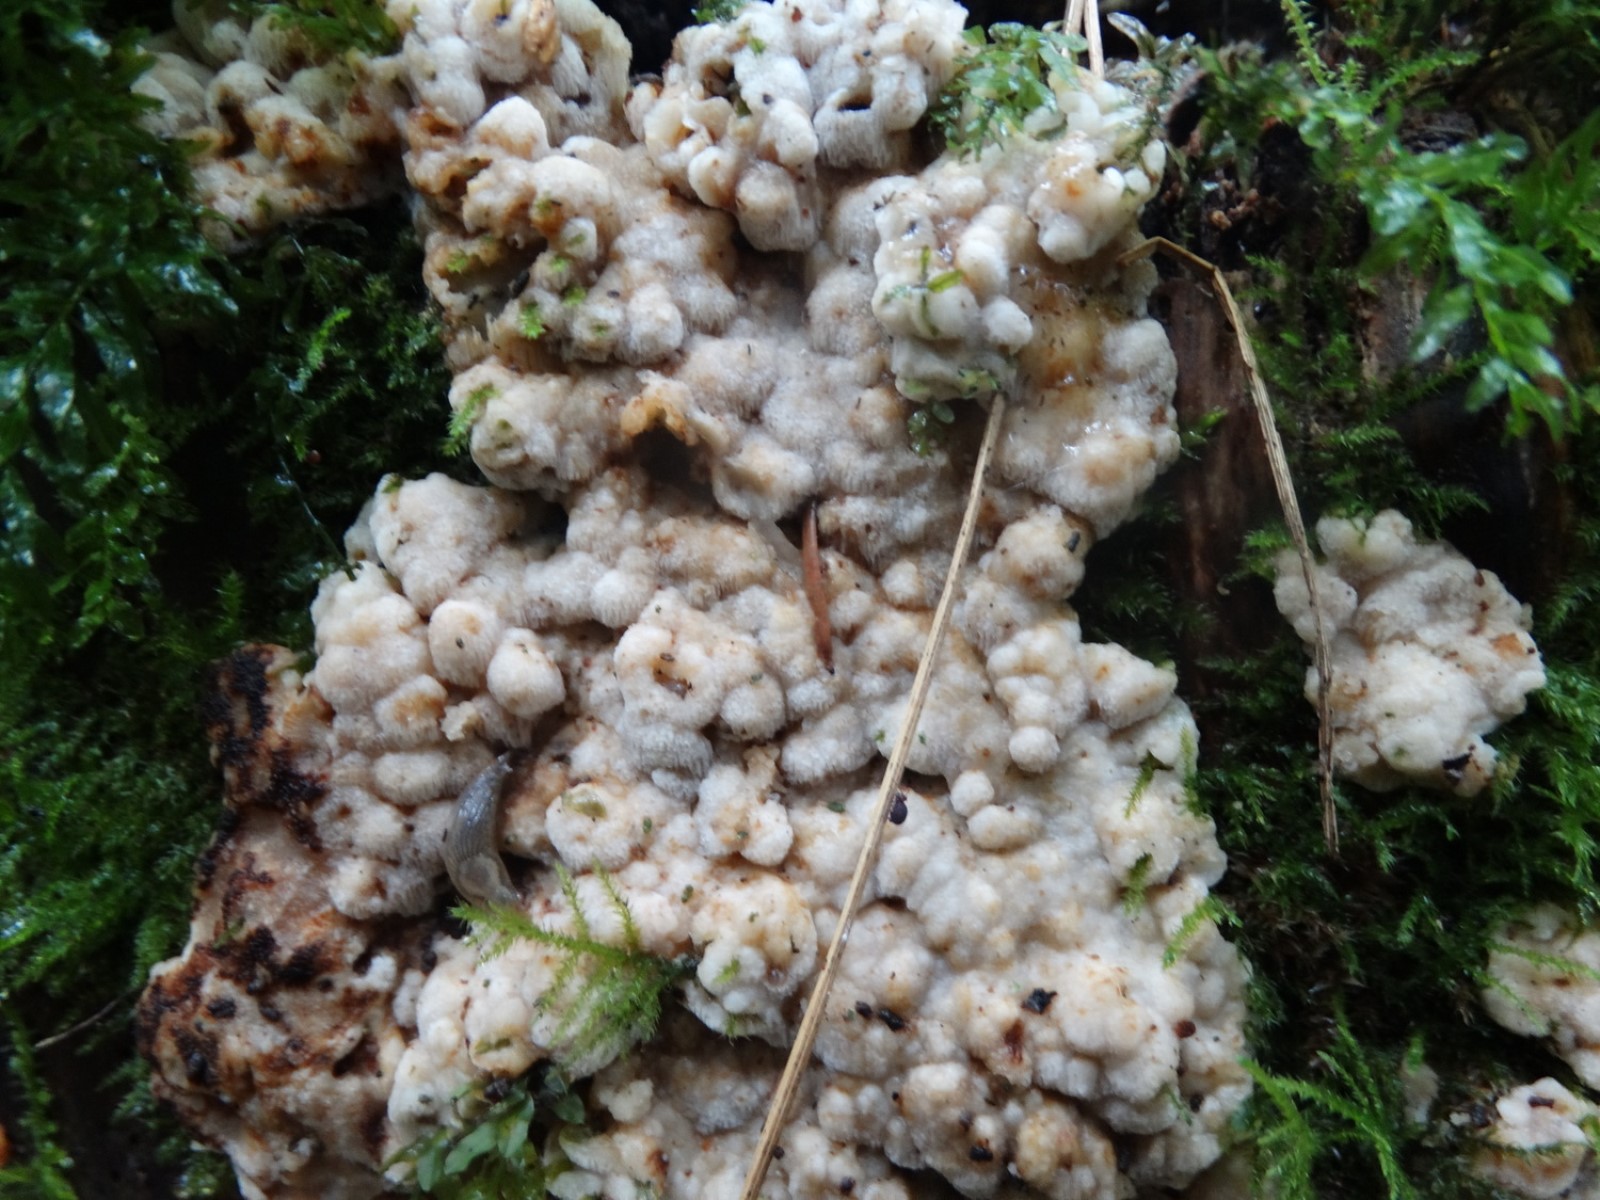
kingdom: Fungi
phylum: Basidiomycota
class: Agaricomycetes
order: Polyporales
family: Meruliaceae
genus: Physisporinus
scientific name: Physisporinus vitreus
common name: mastesvamp
